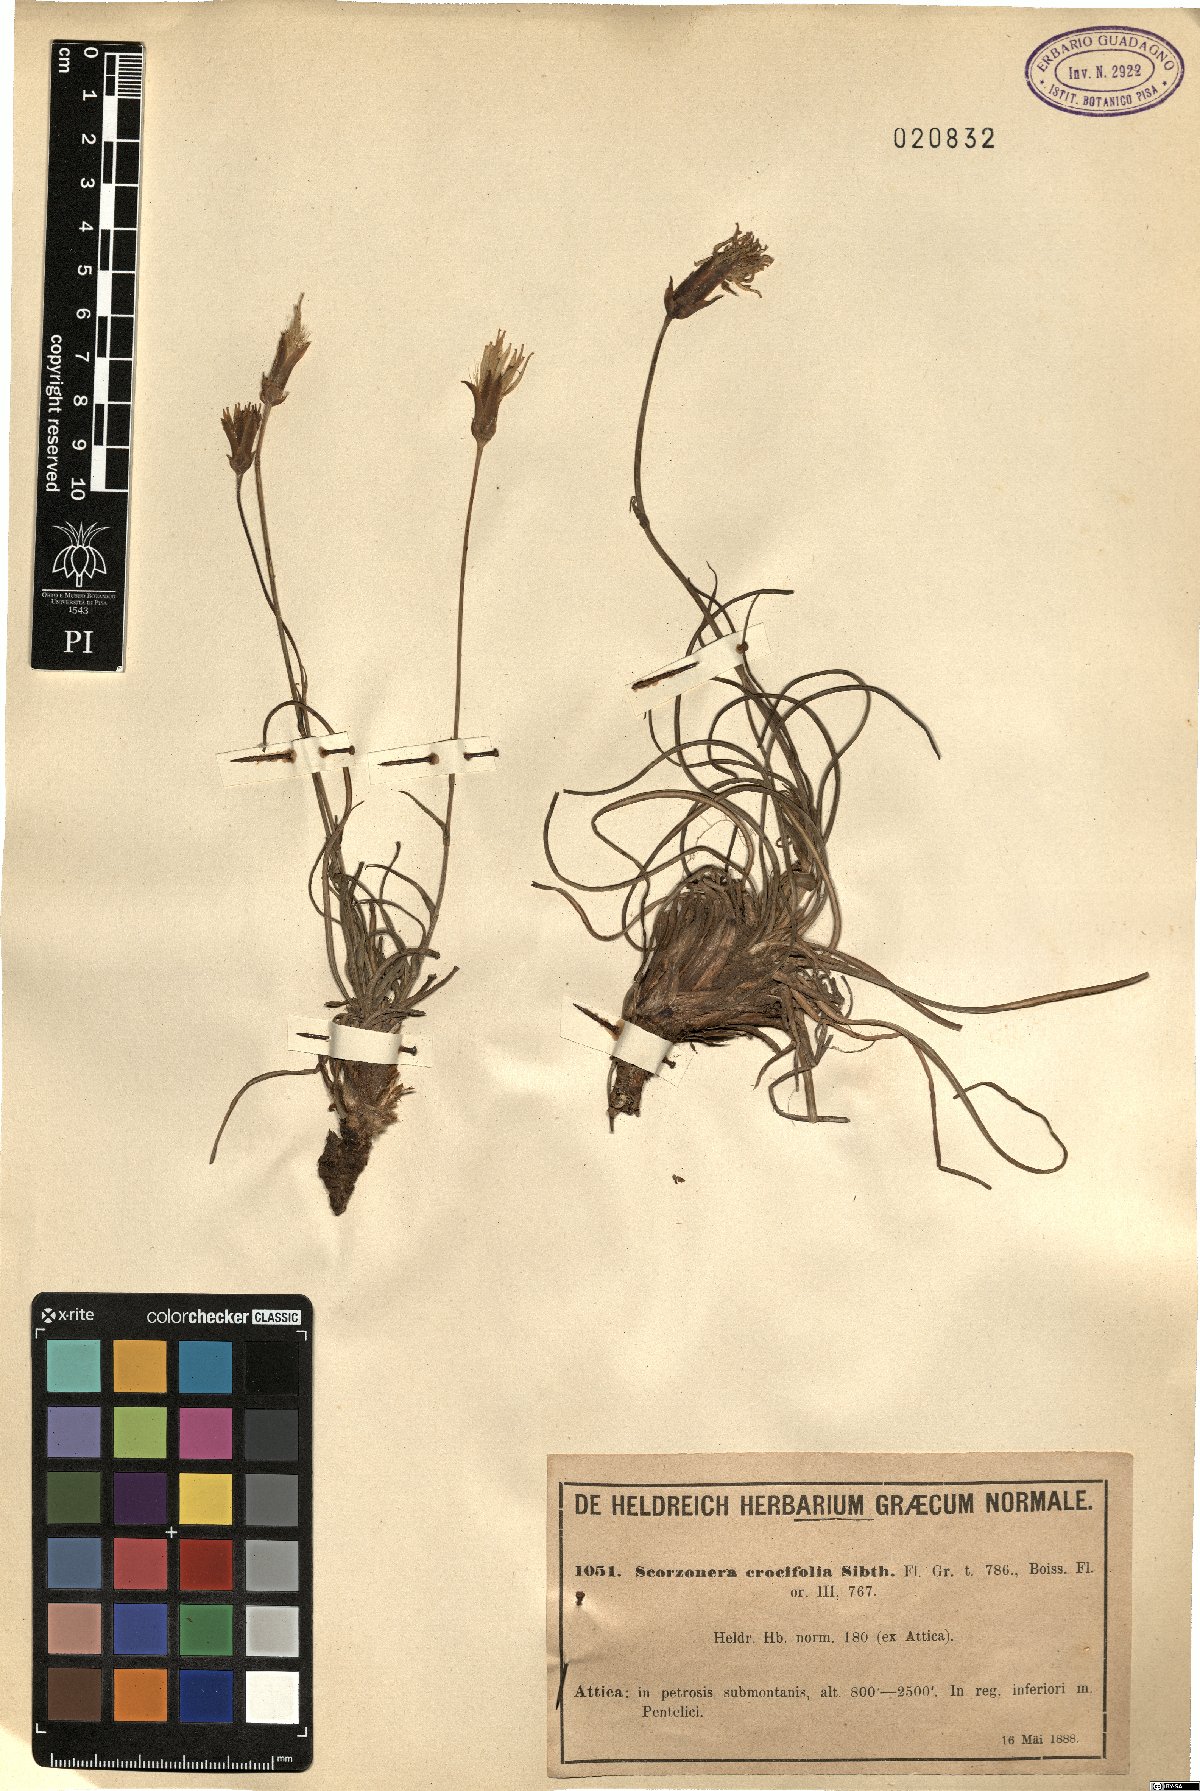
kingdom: Plantae
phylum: Tracheophyta
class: Magnoliopsida
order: Asterales
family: Asteraceae
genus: Pseudopodospermum
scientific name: Pseudopodospermum crocifolium
